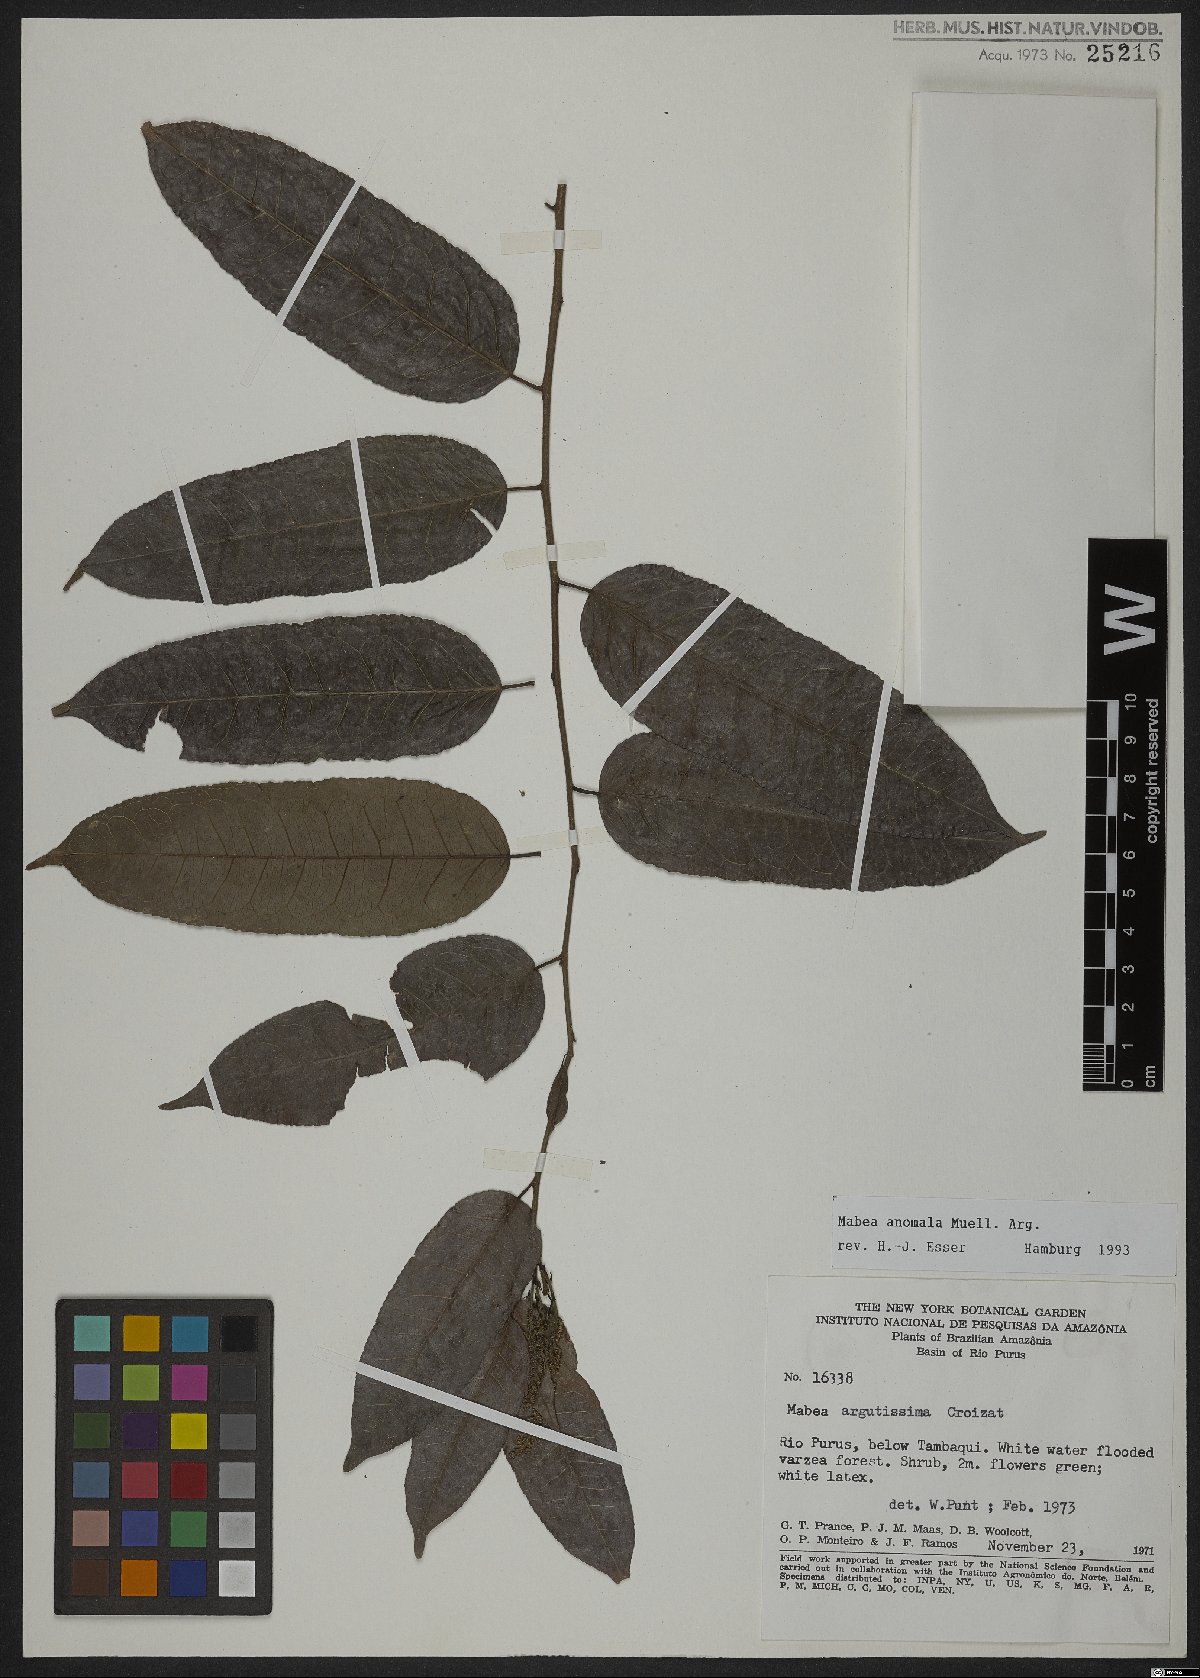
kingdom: Plantae
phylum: Tracheophyta
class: Magnoliopsida
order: Malpighiales
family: Euphorbiaceae
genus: Mabea
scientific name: Mabea anomala
